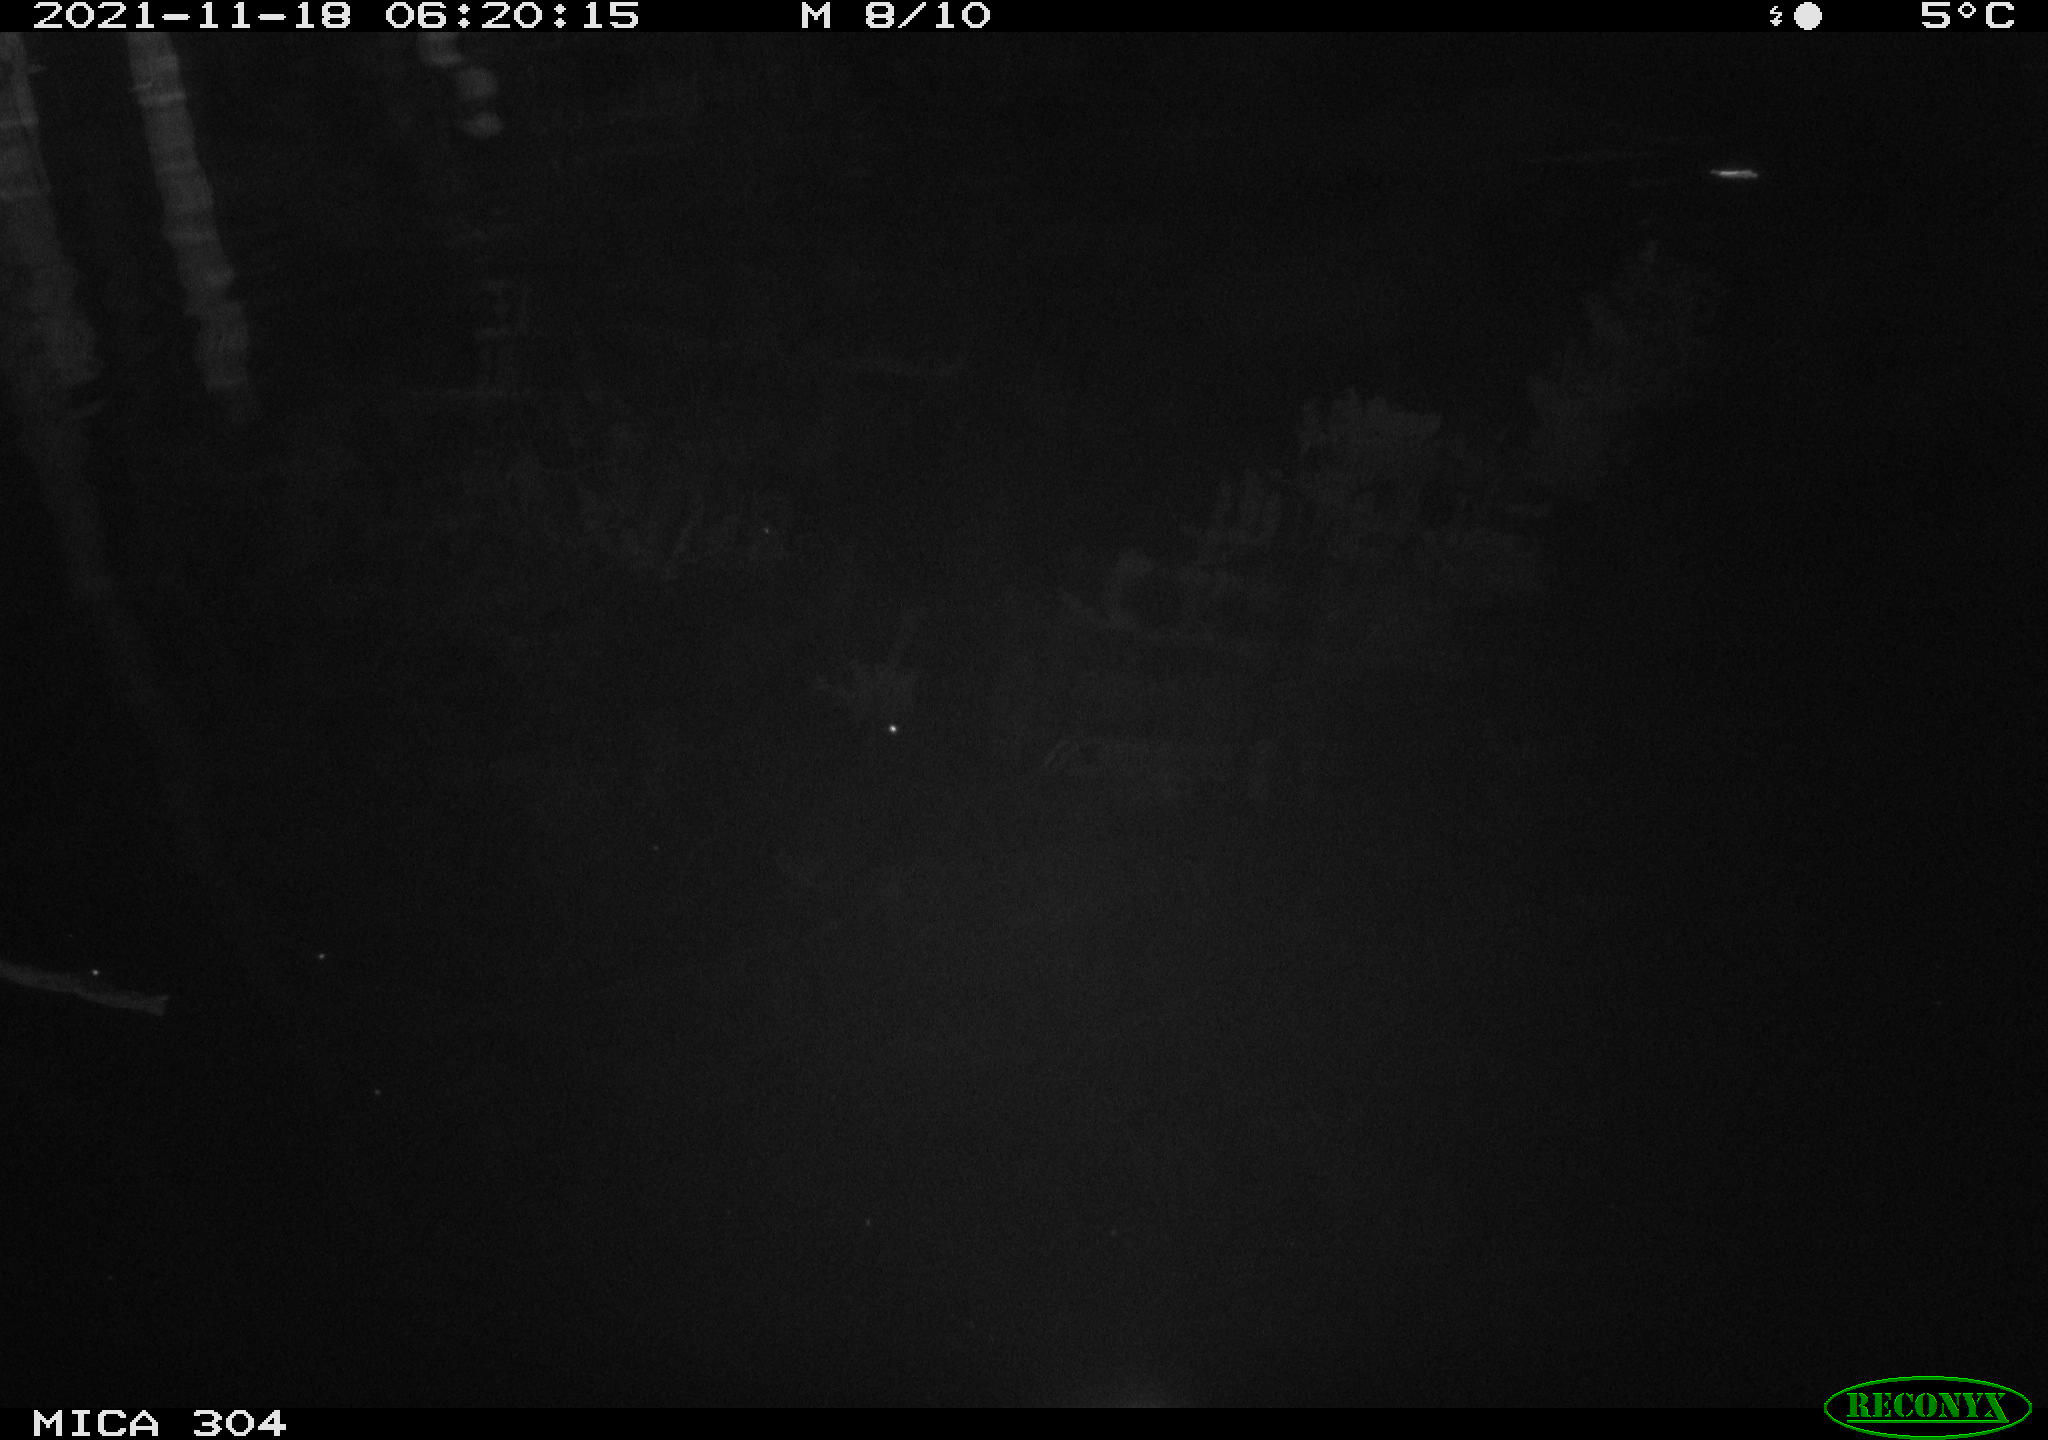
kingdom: Animalia
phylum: Chordata
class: Mammalia
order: Rodentia
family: Muridae
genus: Rattus
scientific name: Rattus norvegicus
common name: Brown rat
